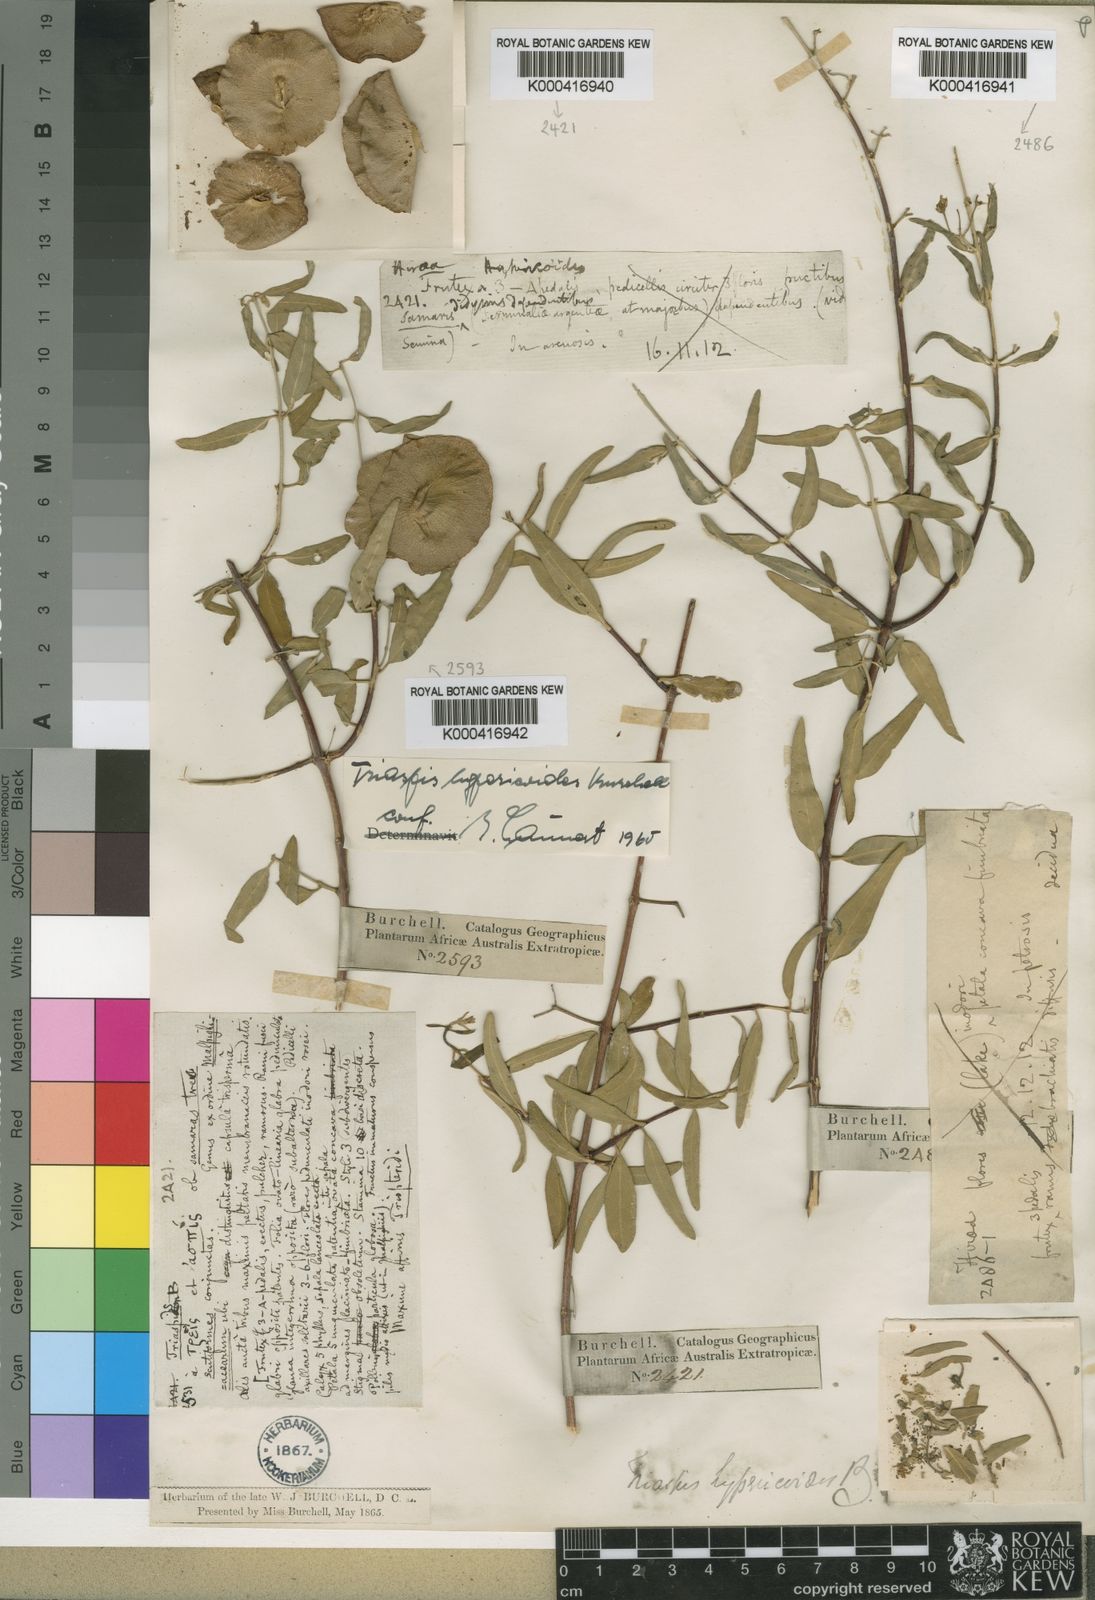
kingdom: Plantae
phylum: Tracheophyta
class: Magnoliopsida
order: Malpighiales
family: Malpighiaceae
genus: Triaspis
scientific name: Triaspis hypericoides
